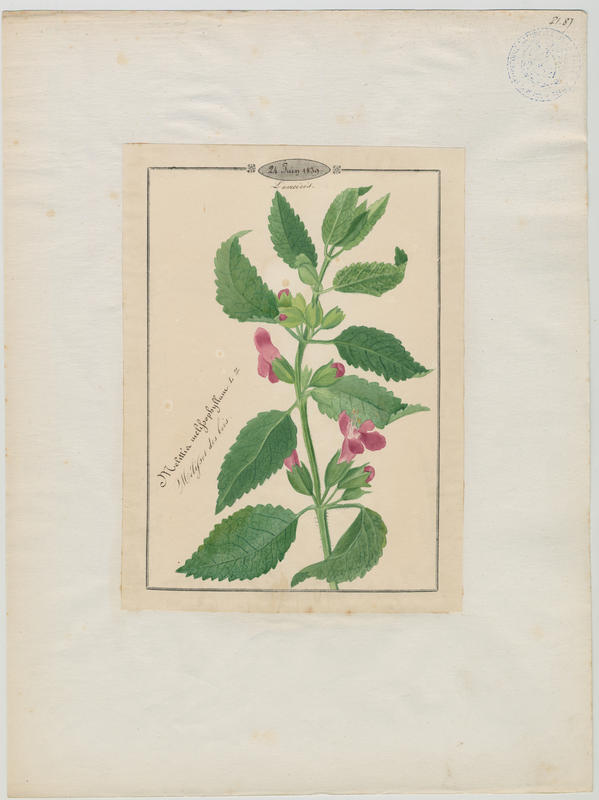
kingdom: Plantae
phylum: Tracheophyta
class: Magnoliopsida
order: Lamiales
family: Lamiaceae
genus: Melittis
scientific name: Melittis melissophyllum
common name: Bastard balm
